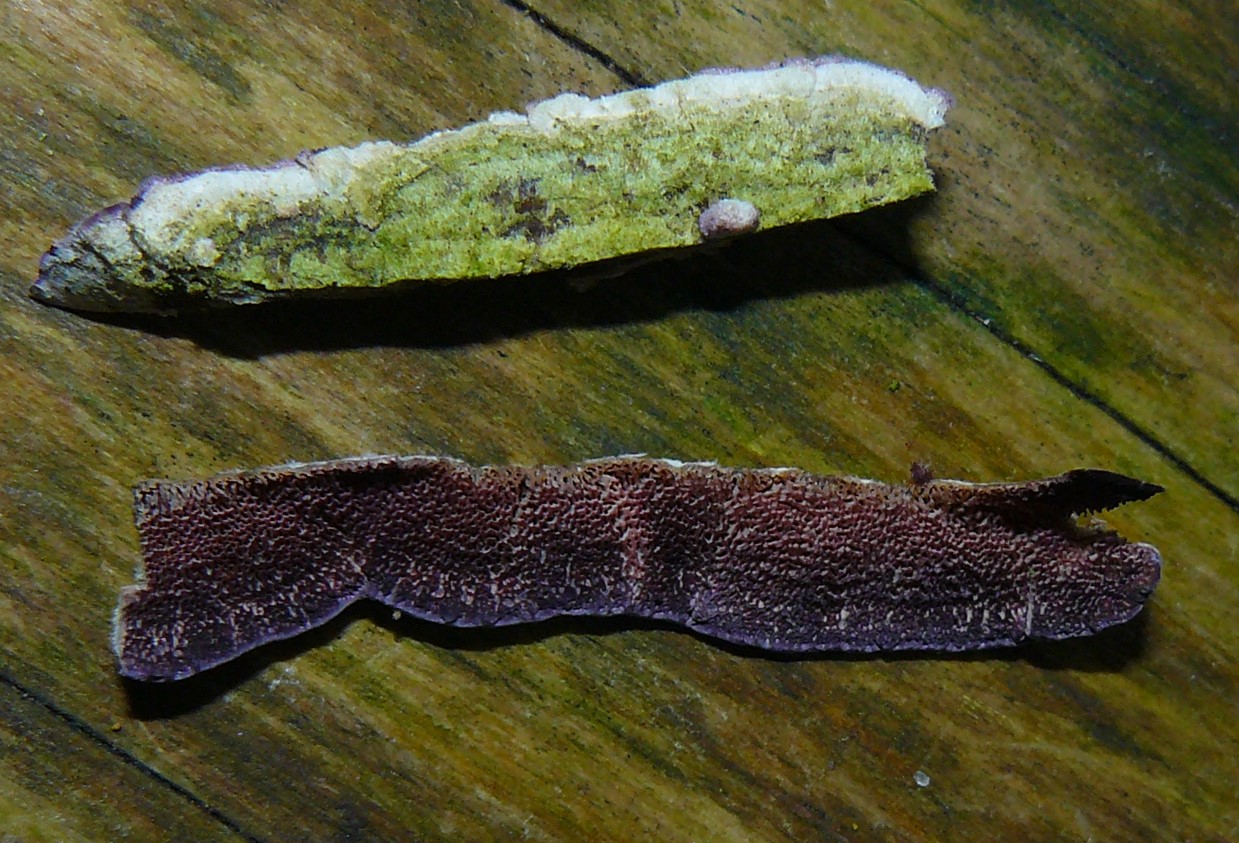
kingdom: Fungi
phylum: Basidiomycota
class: Agaricomycetes
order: Hymenochaetales
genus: Trichaptum
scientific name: Trichaptum abietinum
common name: almindelig violporesvamp
